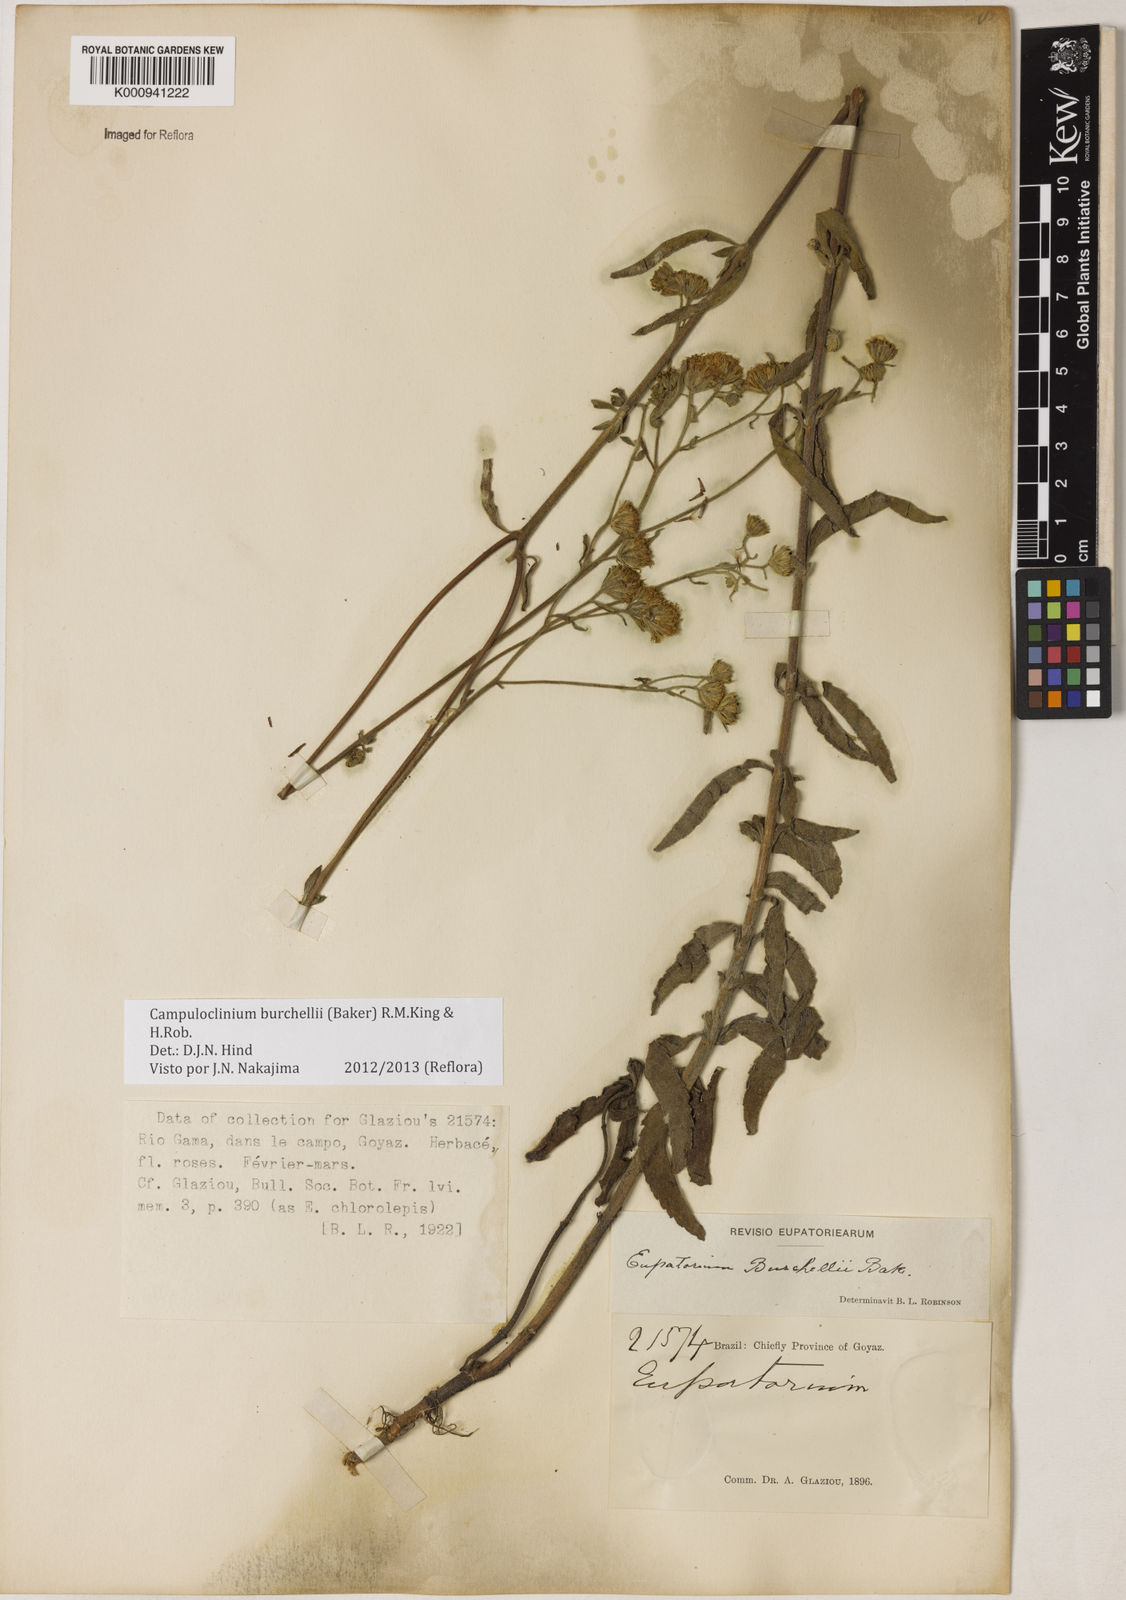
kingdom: Plantae
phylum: Tracheophyta
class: Magnoliopsida
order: Asterales
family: Asteraceae
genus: Campuloclinium
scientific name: Campuloclinium burchellii
